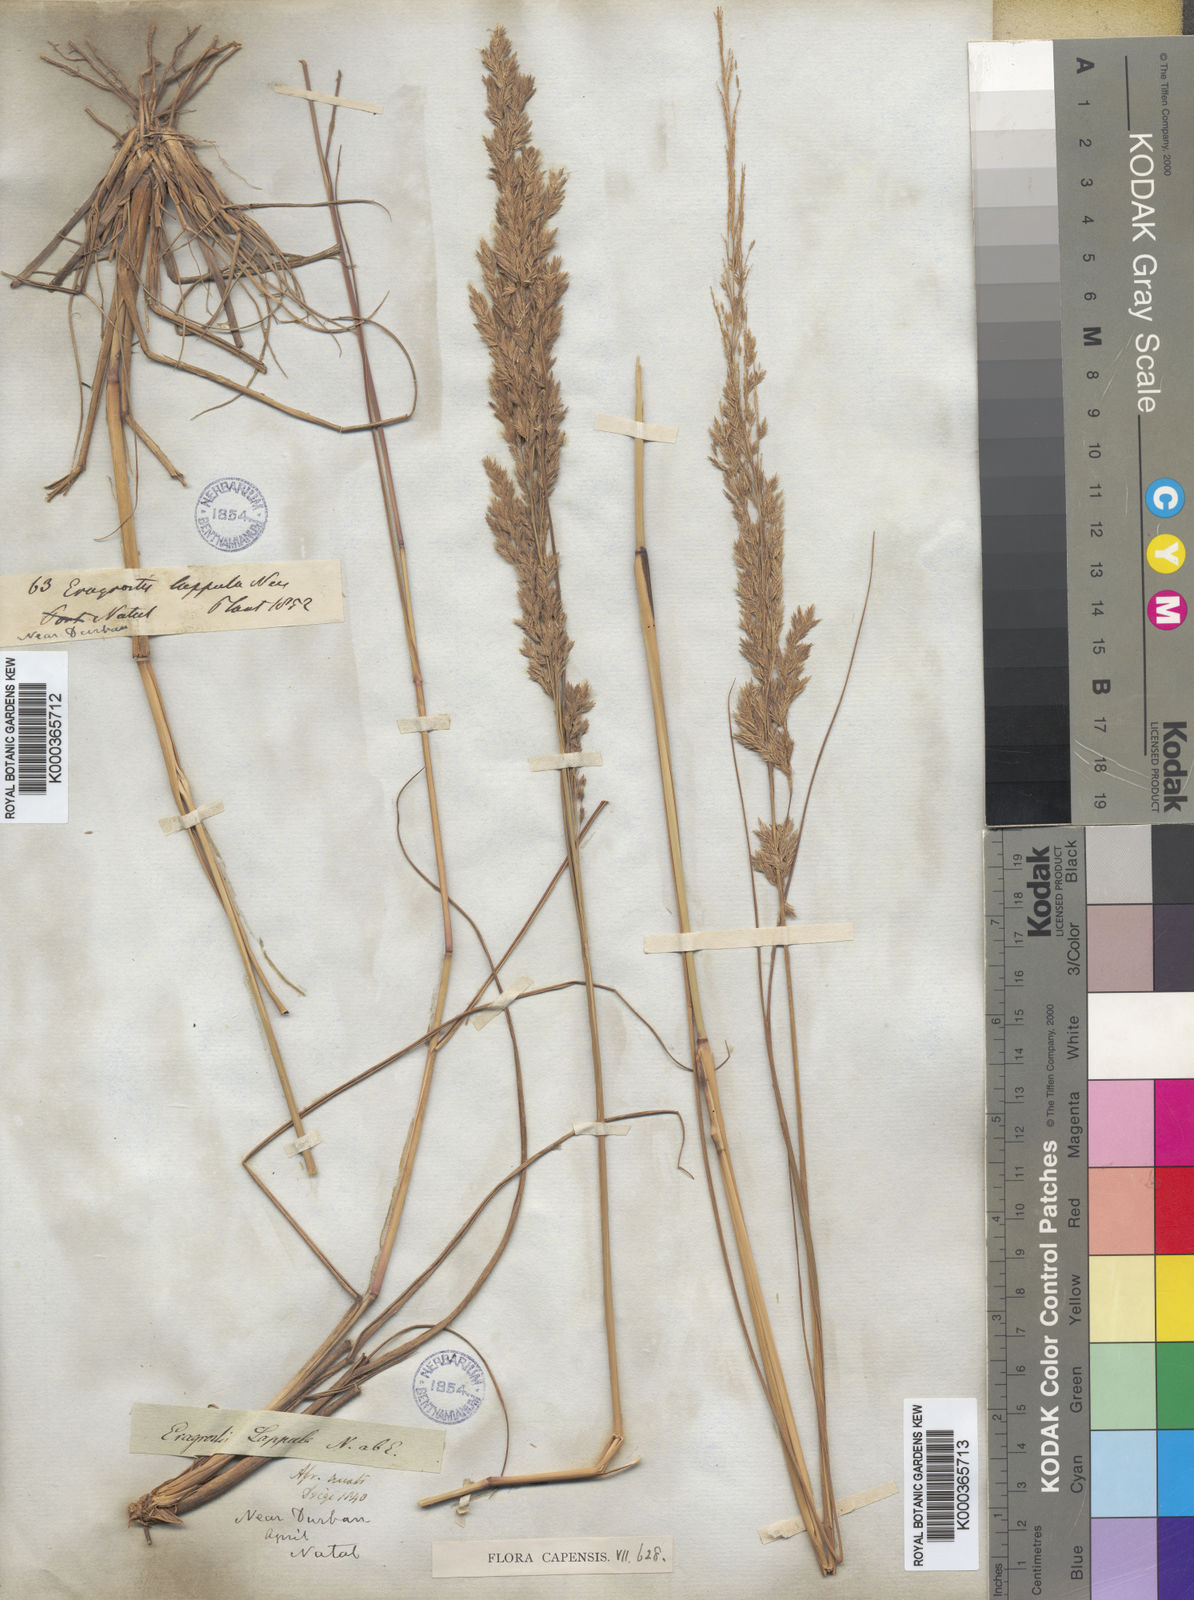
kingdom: Plantae
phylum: Tracheophyta
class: Liliopsida
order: Poales
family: Poaceae
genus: Eragrostis
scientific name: Eragrostis lappula
